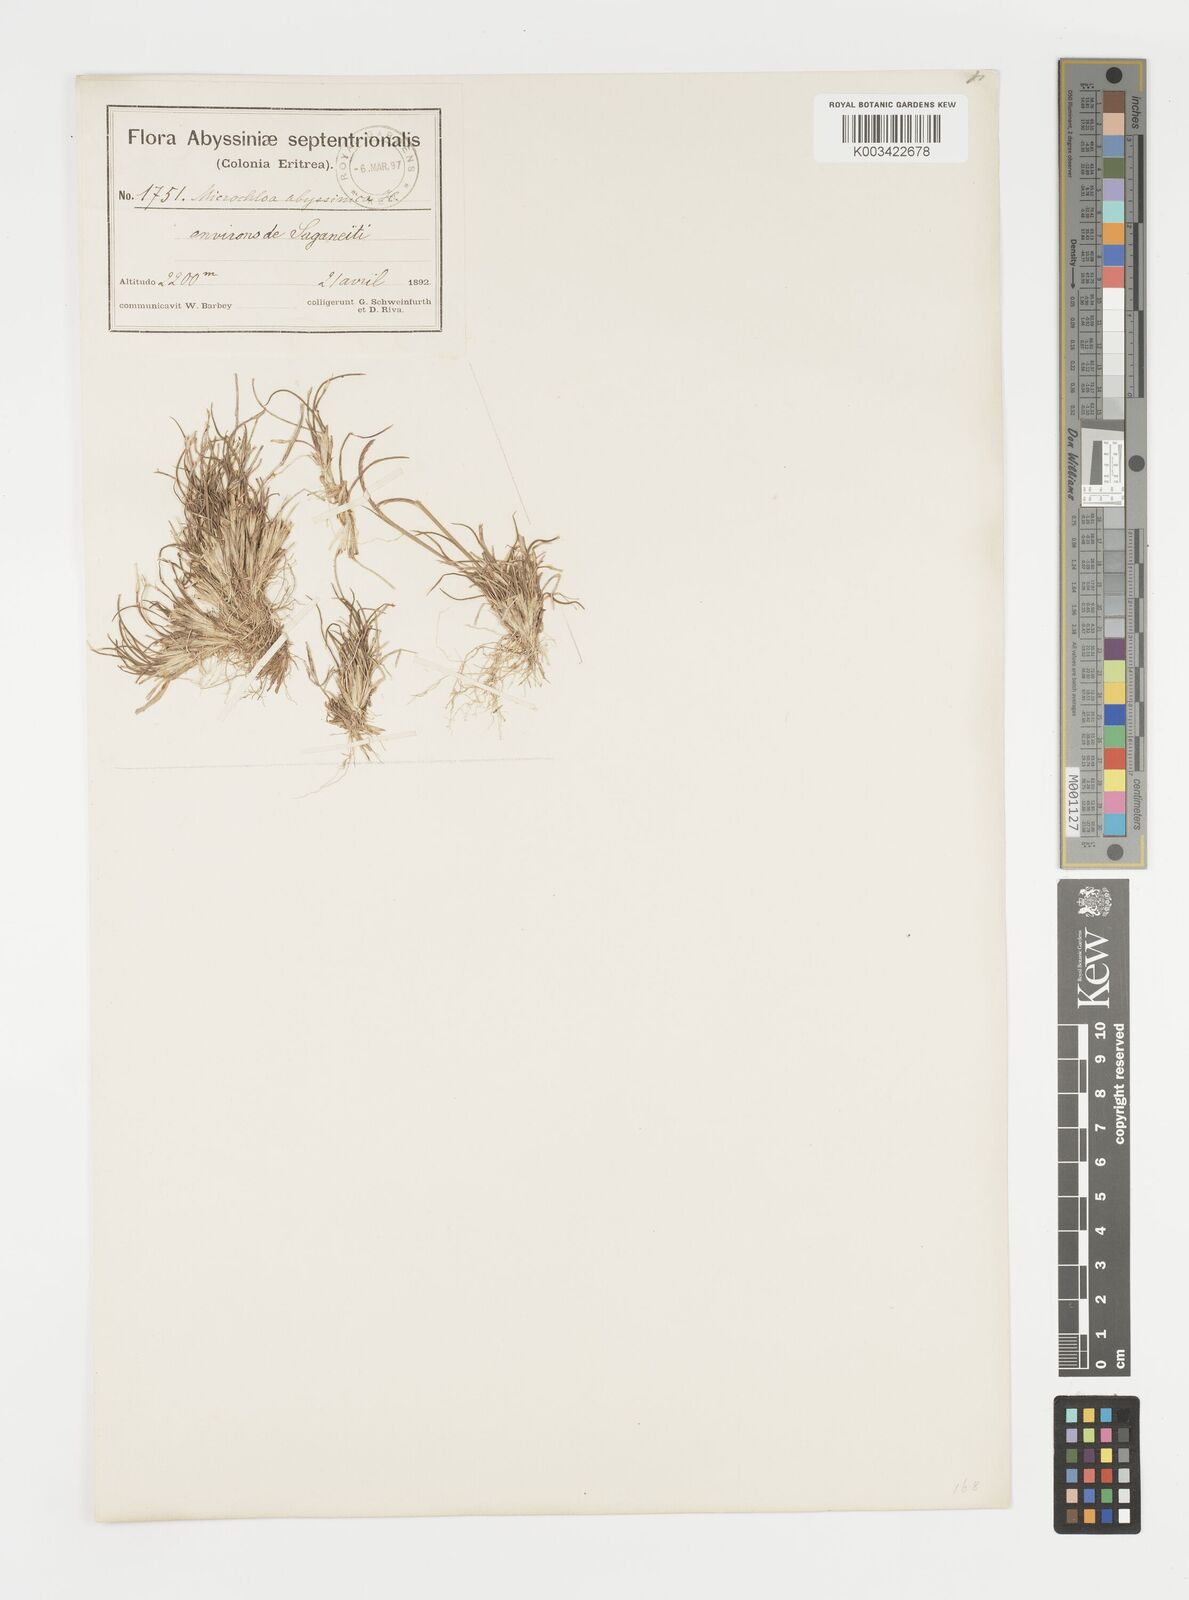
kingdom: Plantae
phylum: Tracheophyta
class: Liliopsida
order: Poales
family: Poaceae
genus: Microchloa
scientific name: Microchloa kunthii
